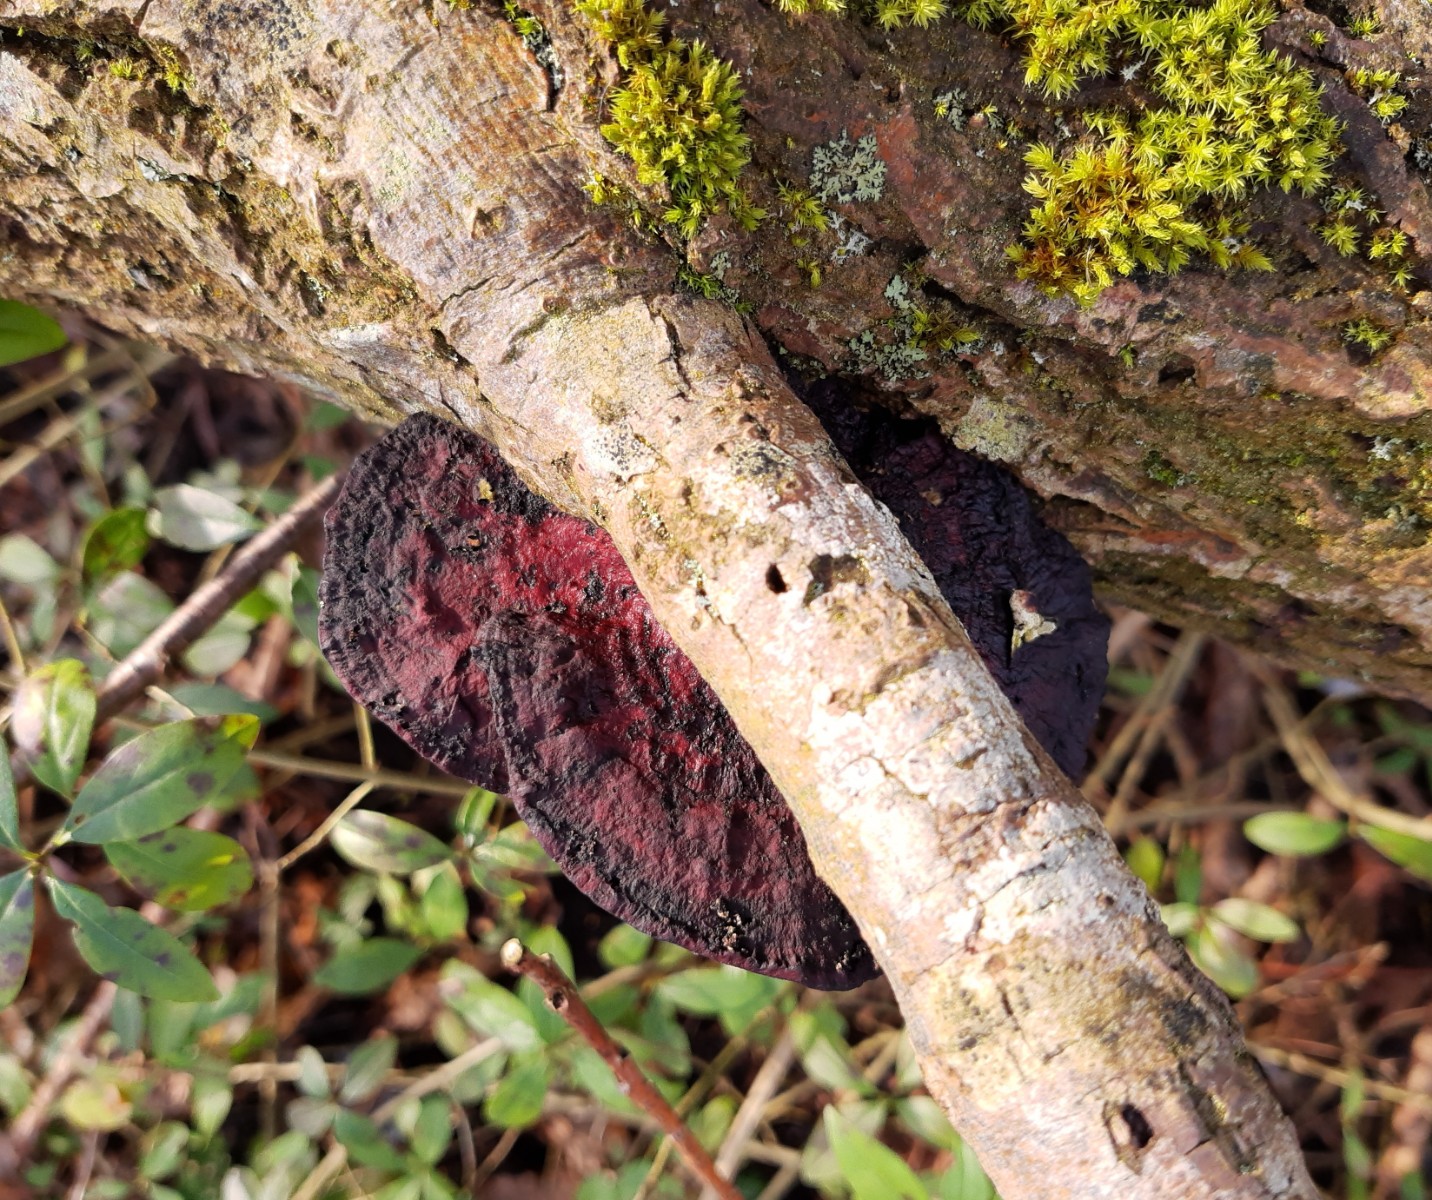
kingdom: Fungi
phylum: Basidiomycota
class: Agaricomycetes
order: Polyporales
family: Polyporaceae
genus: Daedaleopsis
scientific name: Daedaleopsis confragosa
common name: rødmende læderporesvamp
